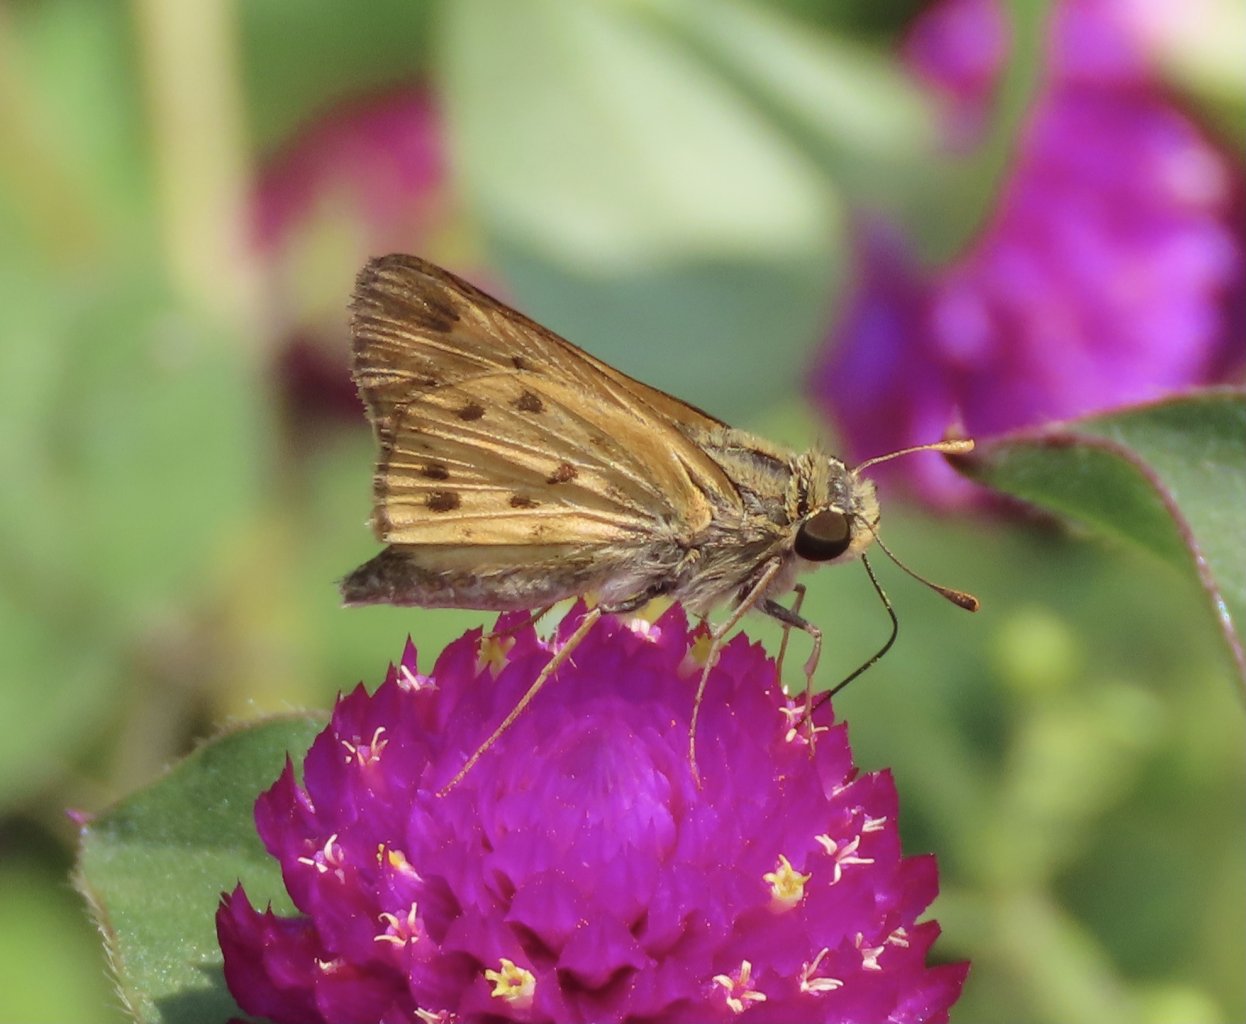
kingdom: Animalia
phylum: Arthropoda
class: Insecta
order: Lepidoptera
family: Hesperiidae
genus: Hylephila
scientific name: Hylephila phyleus
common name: Fiery Skipper
